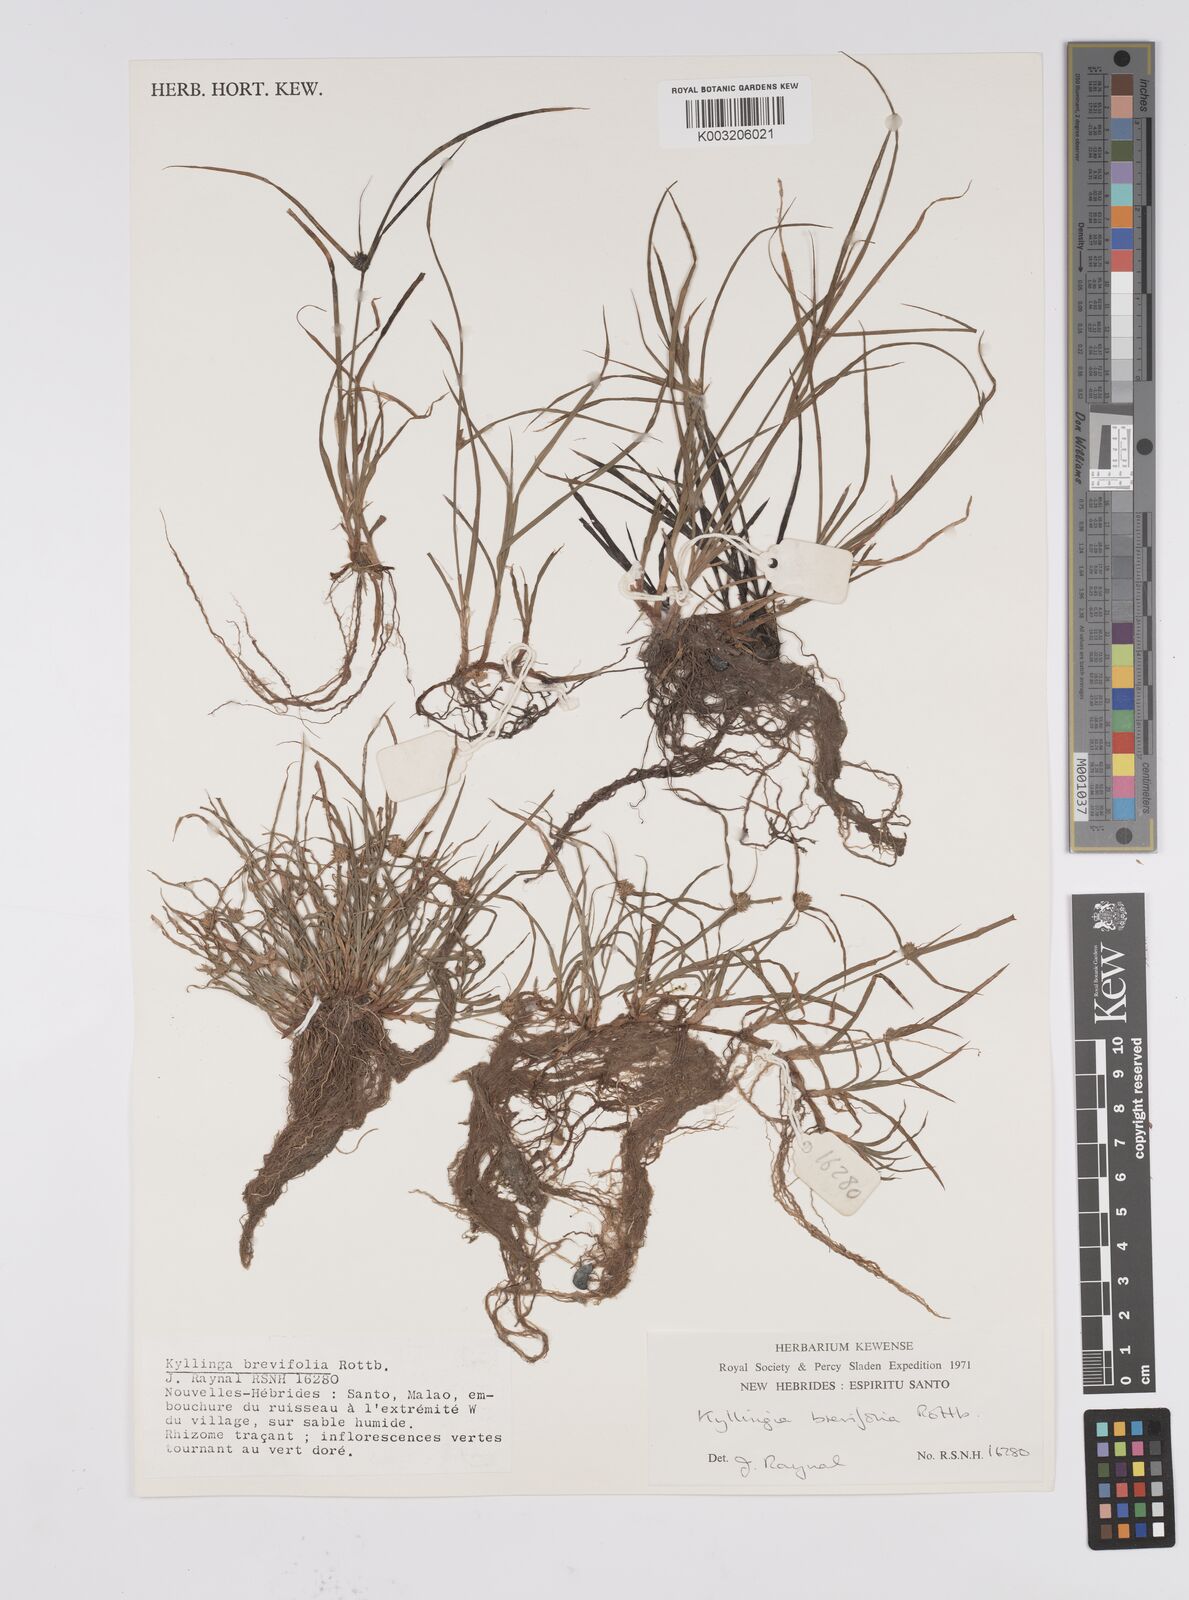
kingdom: Plantae
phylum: Tracheophyta
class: Liliopsida
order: Poales
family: Cyperaceae
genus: Cyperus
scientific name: Cyperus brevifolius
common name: Globe kyllinga
